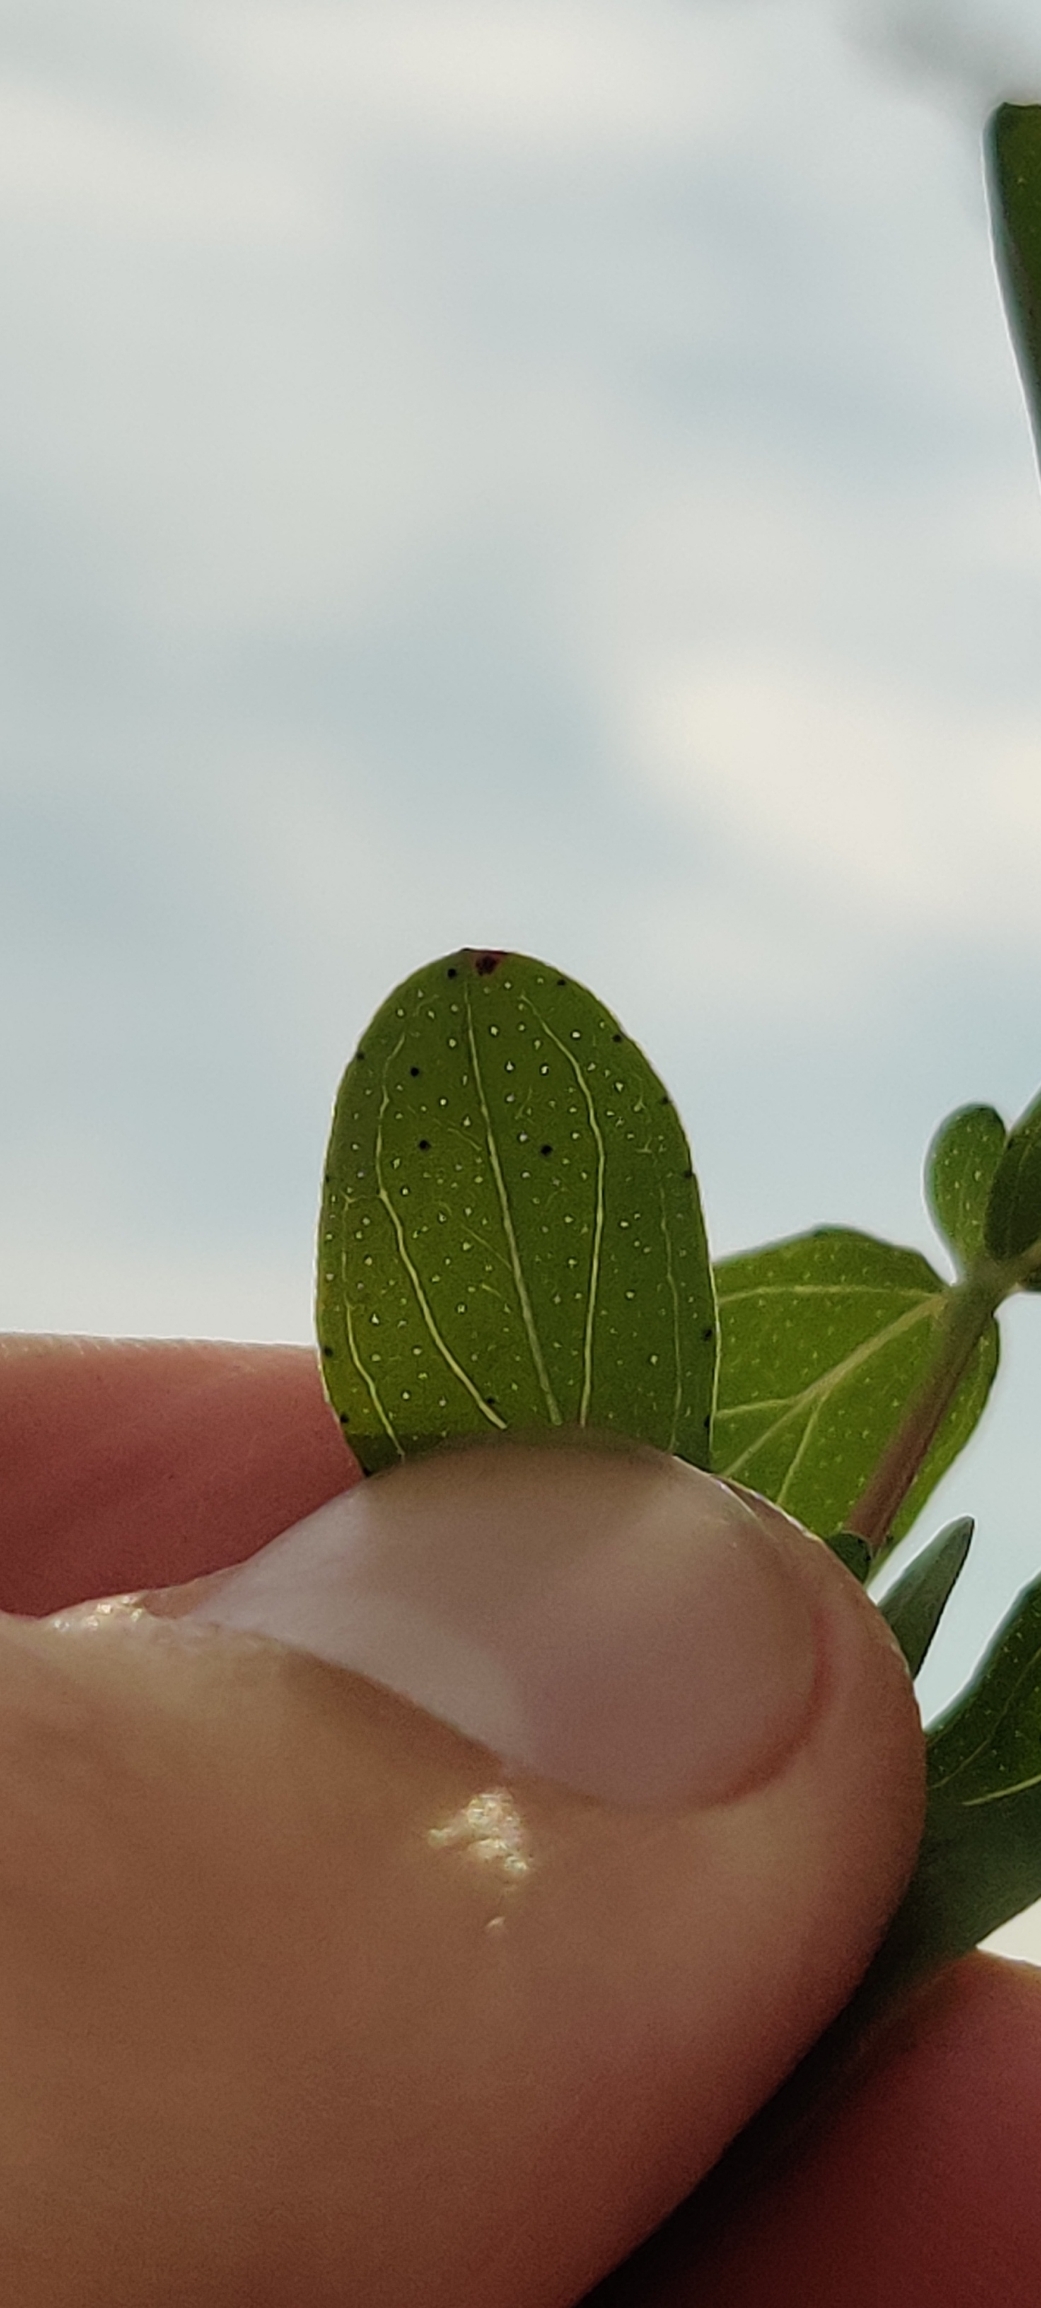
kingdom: Plantae
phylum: Tracheophyta
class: Magnoliopsida
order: Malpighiales
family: Hypericaceae
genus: Hypericum
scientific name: Hypericum perforatum
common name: Prikbladet perikon
